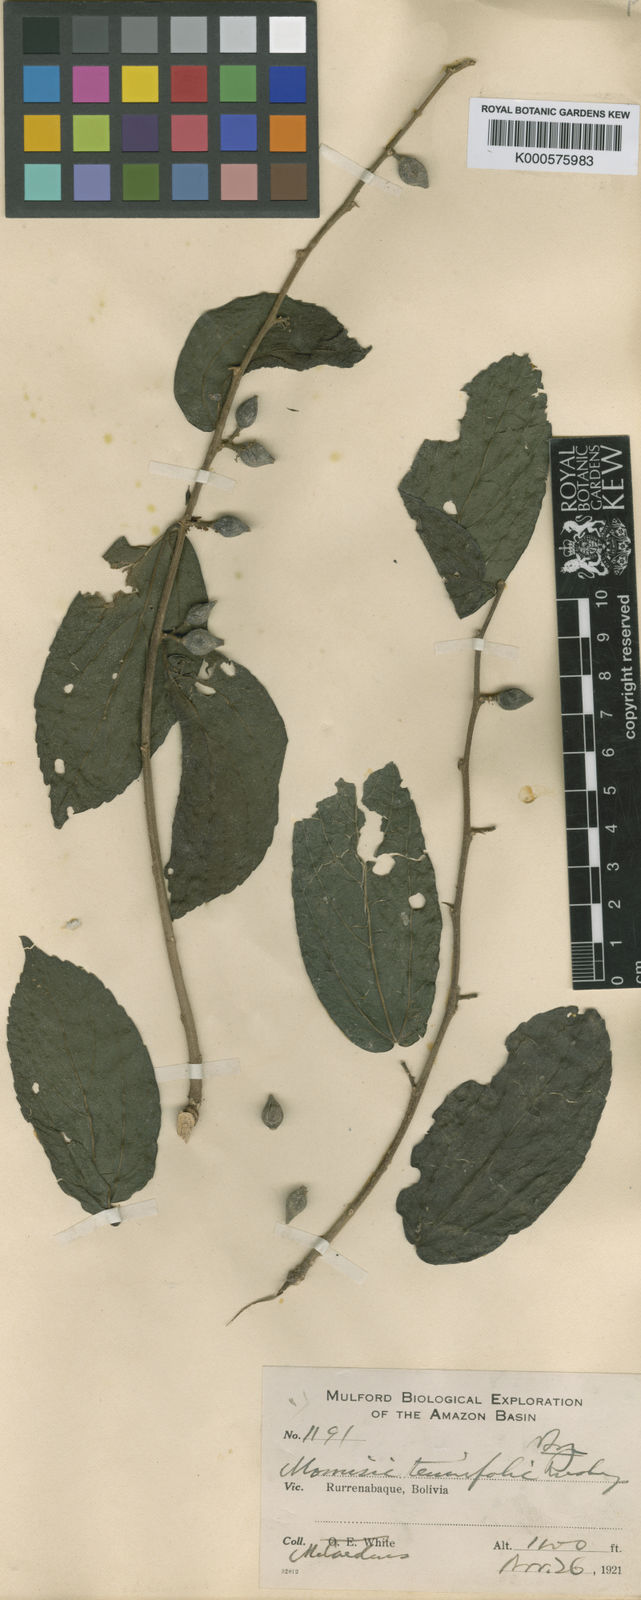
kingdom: Plantae
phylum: Tracheophyta
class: Magnoliopsida
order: Rosales
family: Cannabaceae
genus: Celtis
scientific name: Celtis tenuifolia
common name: Georgia hackberry
